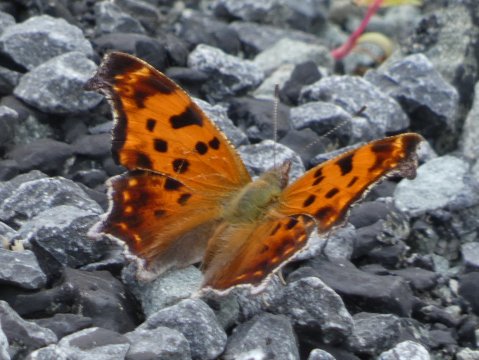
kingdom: Animalia
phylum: Arthropoda
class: Insecta
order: Lepidoptera
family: Nymphalidae
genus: Polygonia
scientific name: Polygonia comma
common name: Eastern Comma
